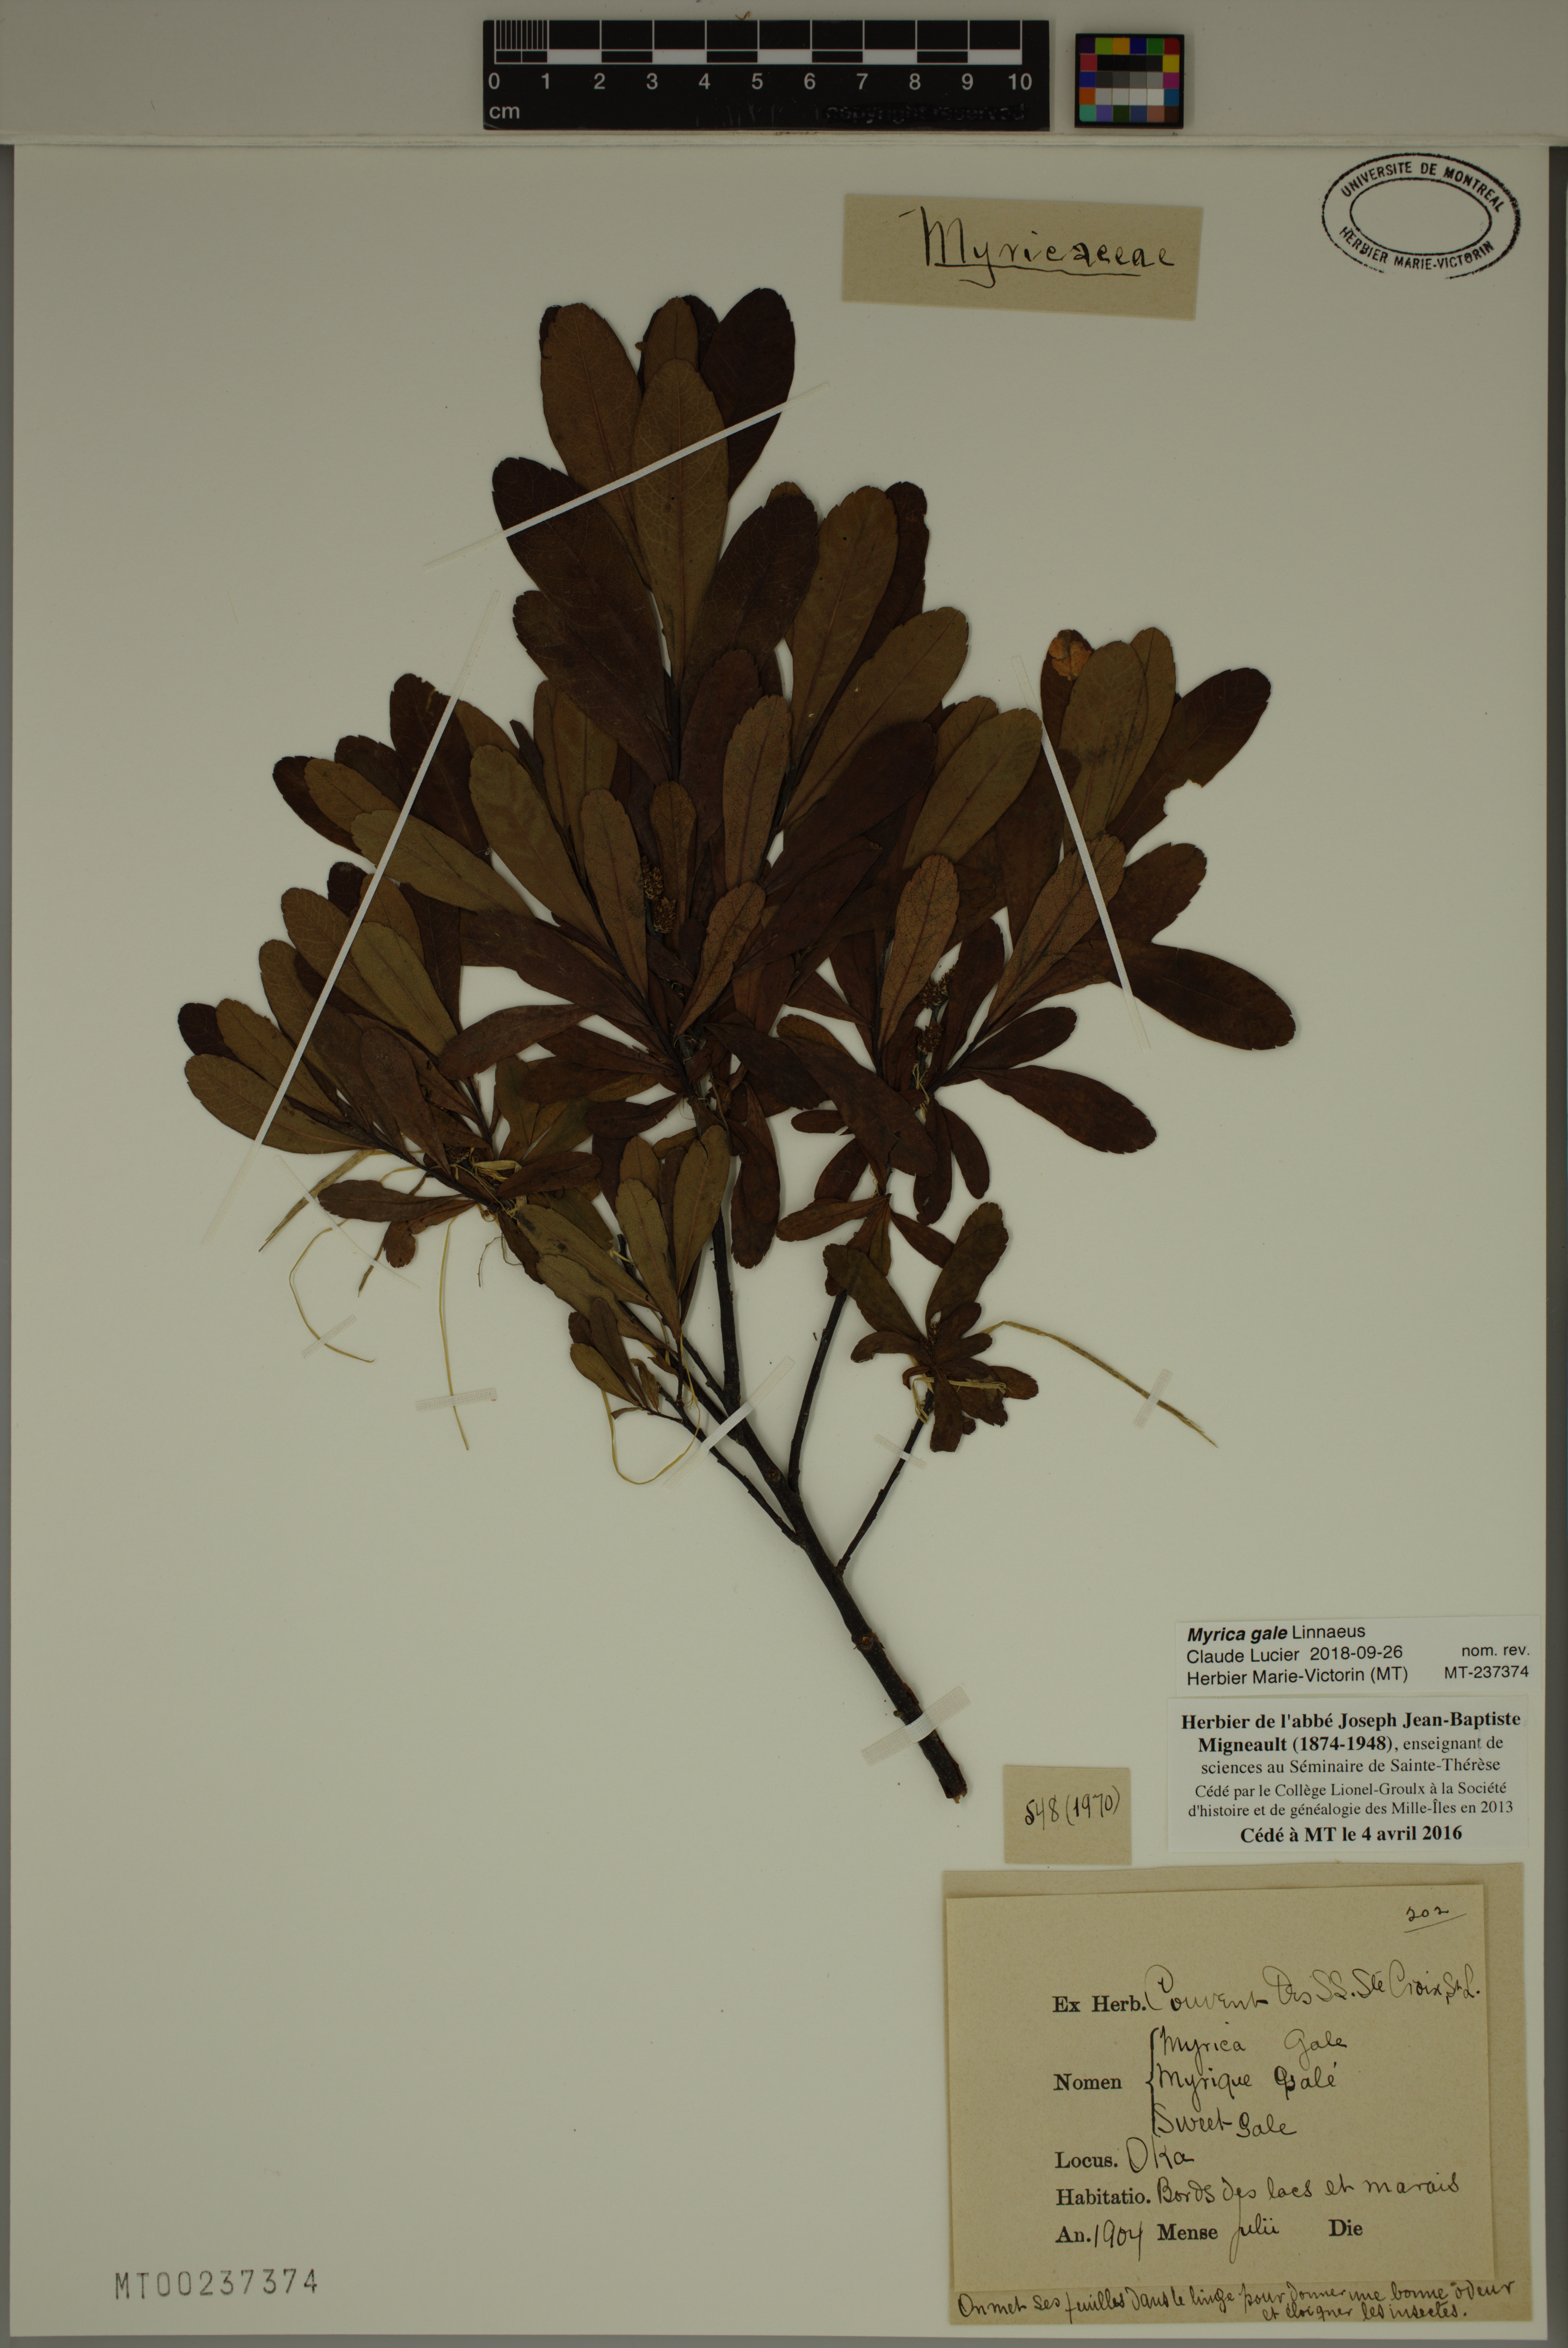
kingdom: Plantae
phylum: Tracheophyta
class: Magnoliopsida
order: Fagales
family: Myricaceae
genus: Myrica
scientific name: Myrica gale
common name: Sweet gale
